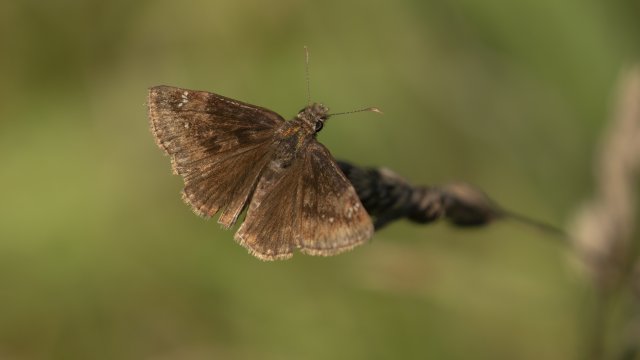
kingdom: Animalia
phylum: Arthropoda
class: Insecta
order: Lepidoptera
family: Hesperiidae
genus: Gesta
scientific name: Gesta
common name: Wild Indigo Duskywing
